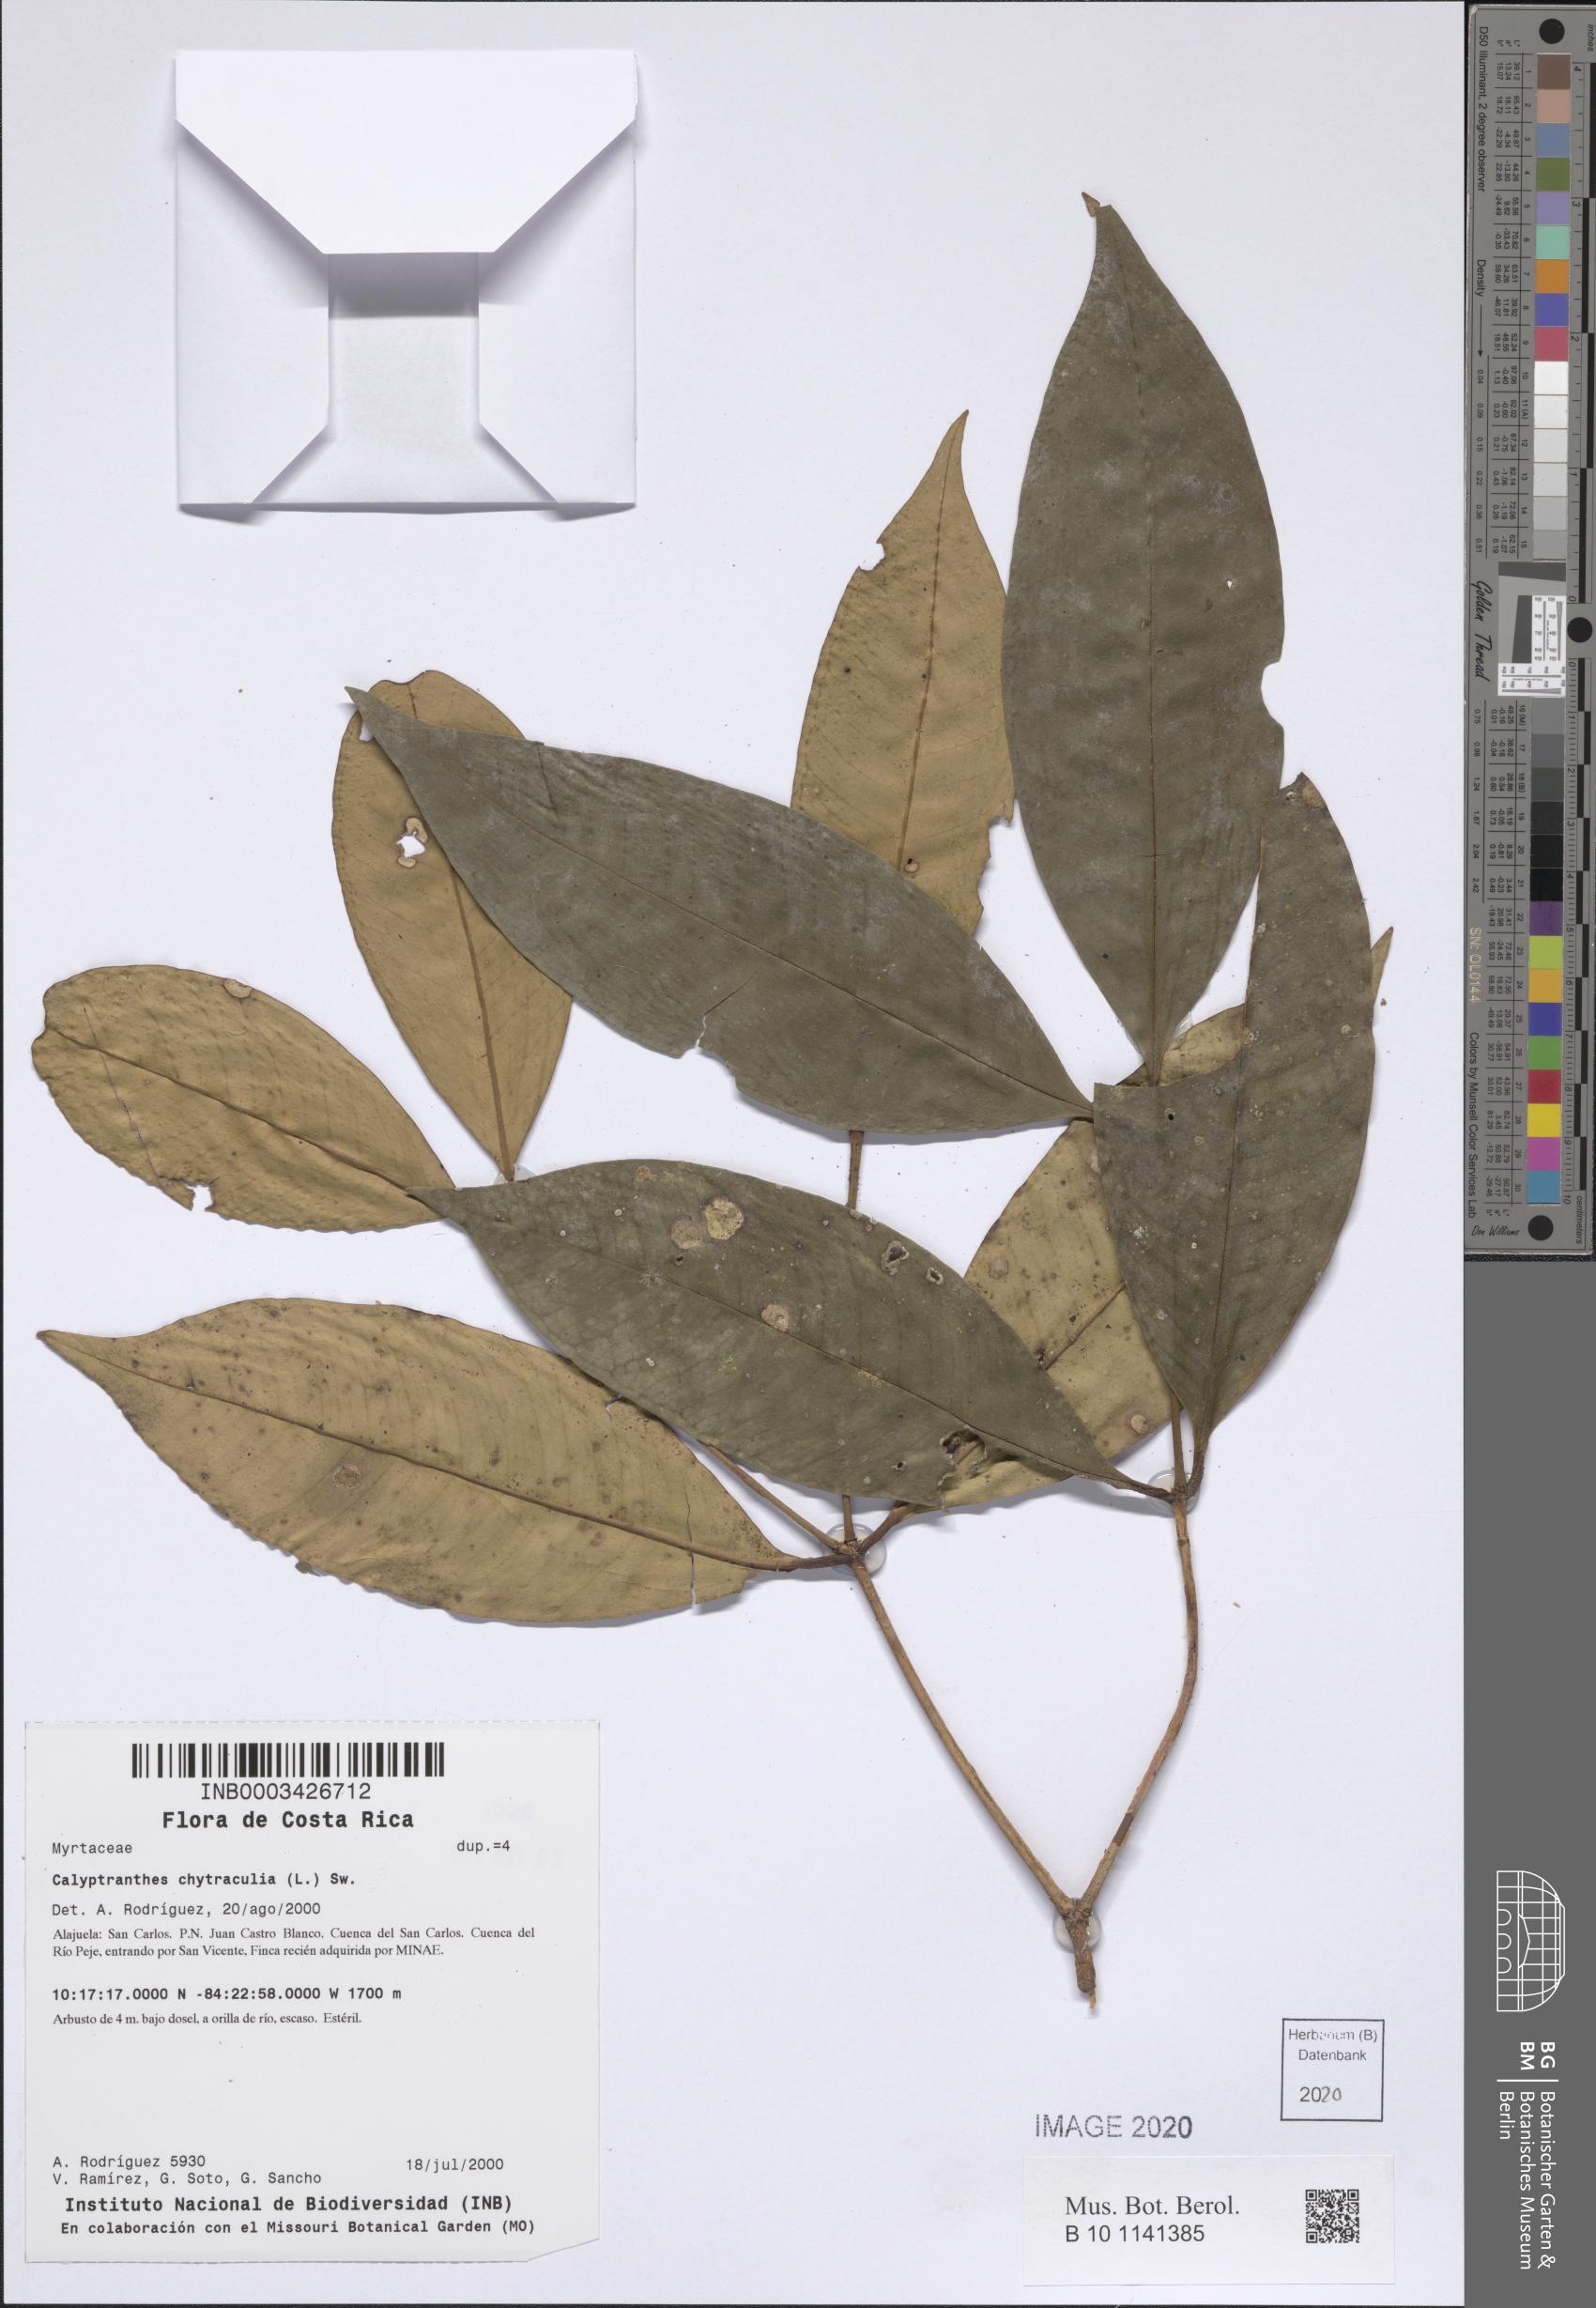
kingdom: Plantae
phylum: Tracheophyta
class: Magnoliopsida
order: Myrtales
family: Myrtaceae
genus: Myrcia
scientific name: Myrcia chytraculia
